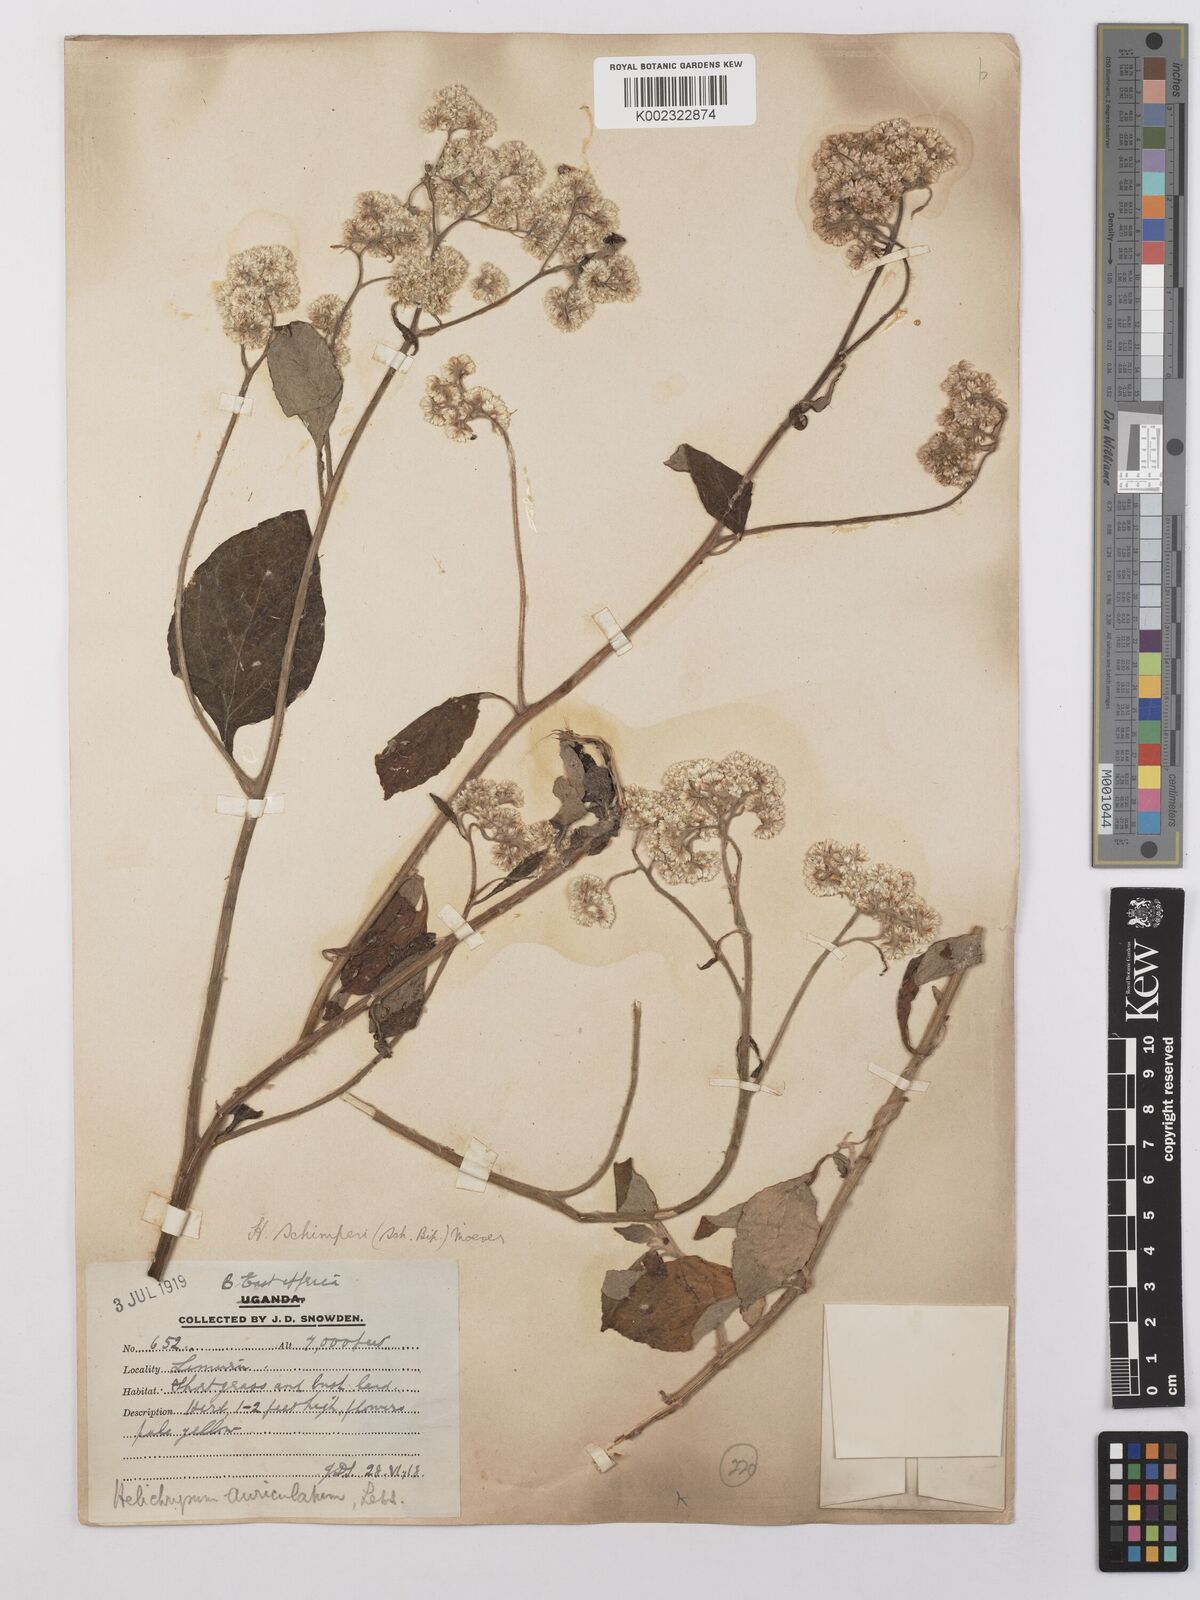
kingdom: Plantae
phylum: Tracheophyta
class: Magnoliopsida
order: Asterales
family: Asteraceae
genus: Helichrysum
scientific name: Helichrysum schimperi
